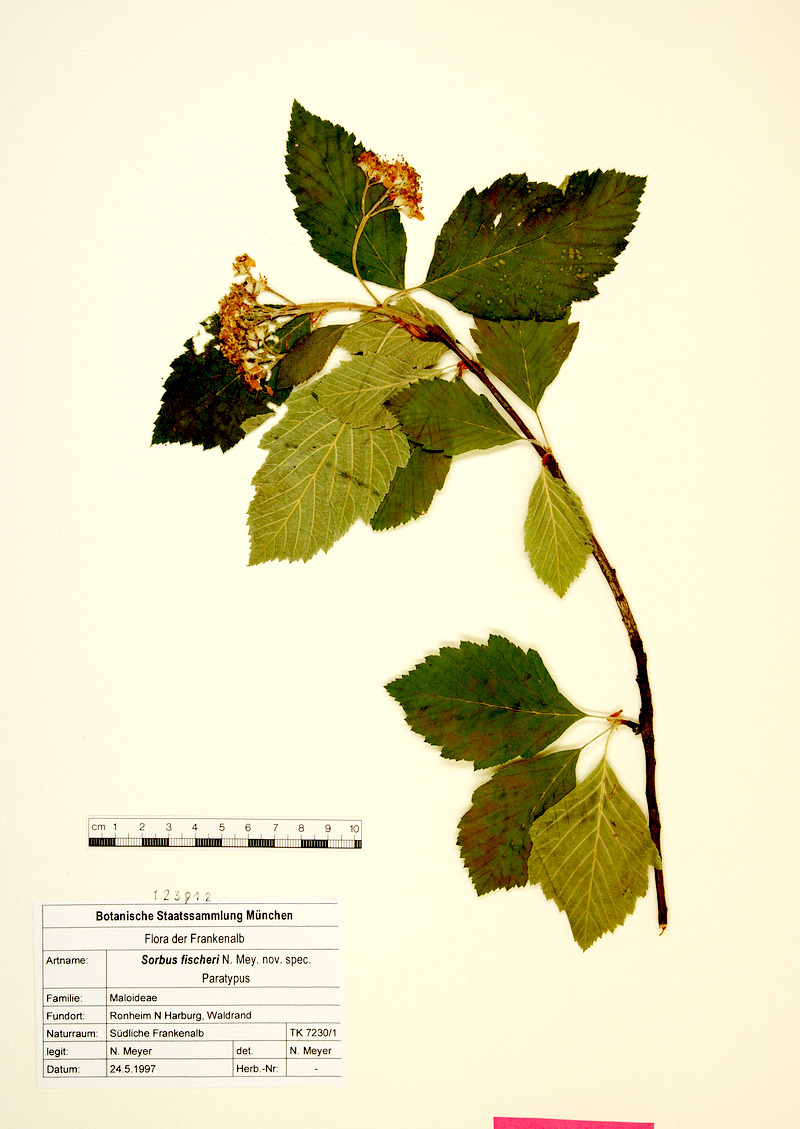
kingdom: Plantae
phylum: Tracheophyta
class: Magnoliopsida
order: Rosales
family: Rosaceae
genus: Karpatiosorbus
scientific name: Karpatiosorbus fischeri
